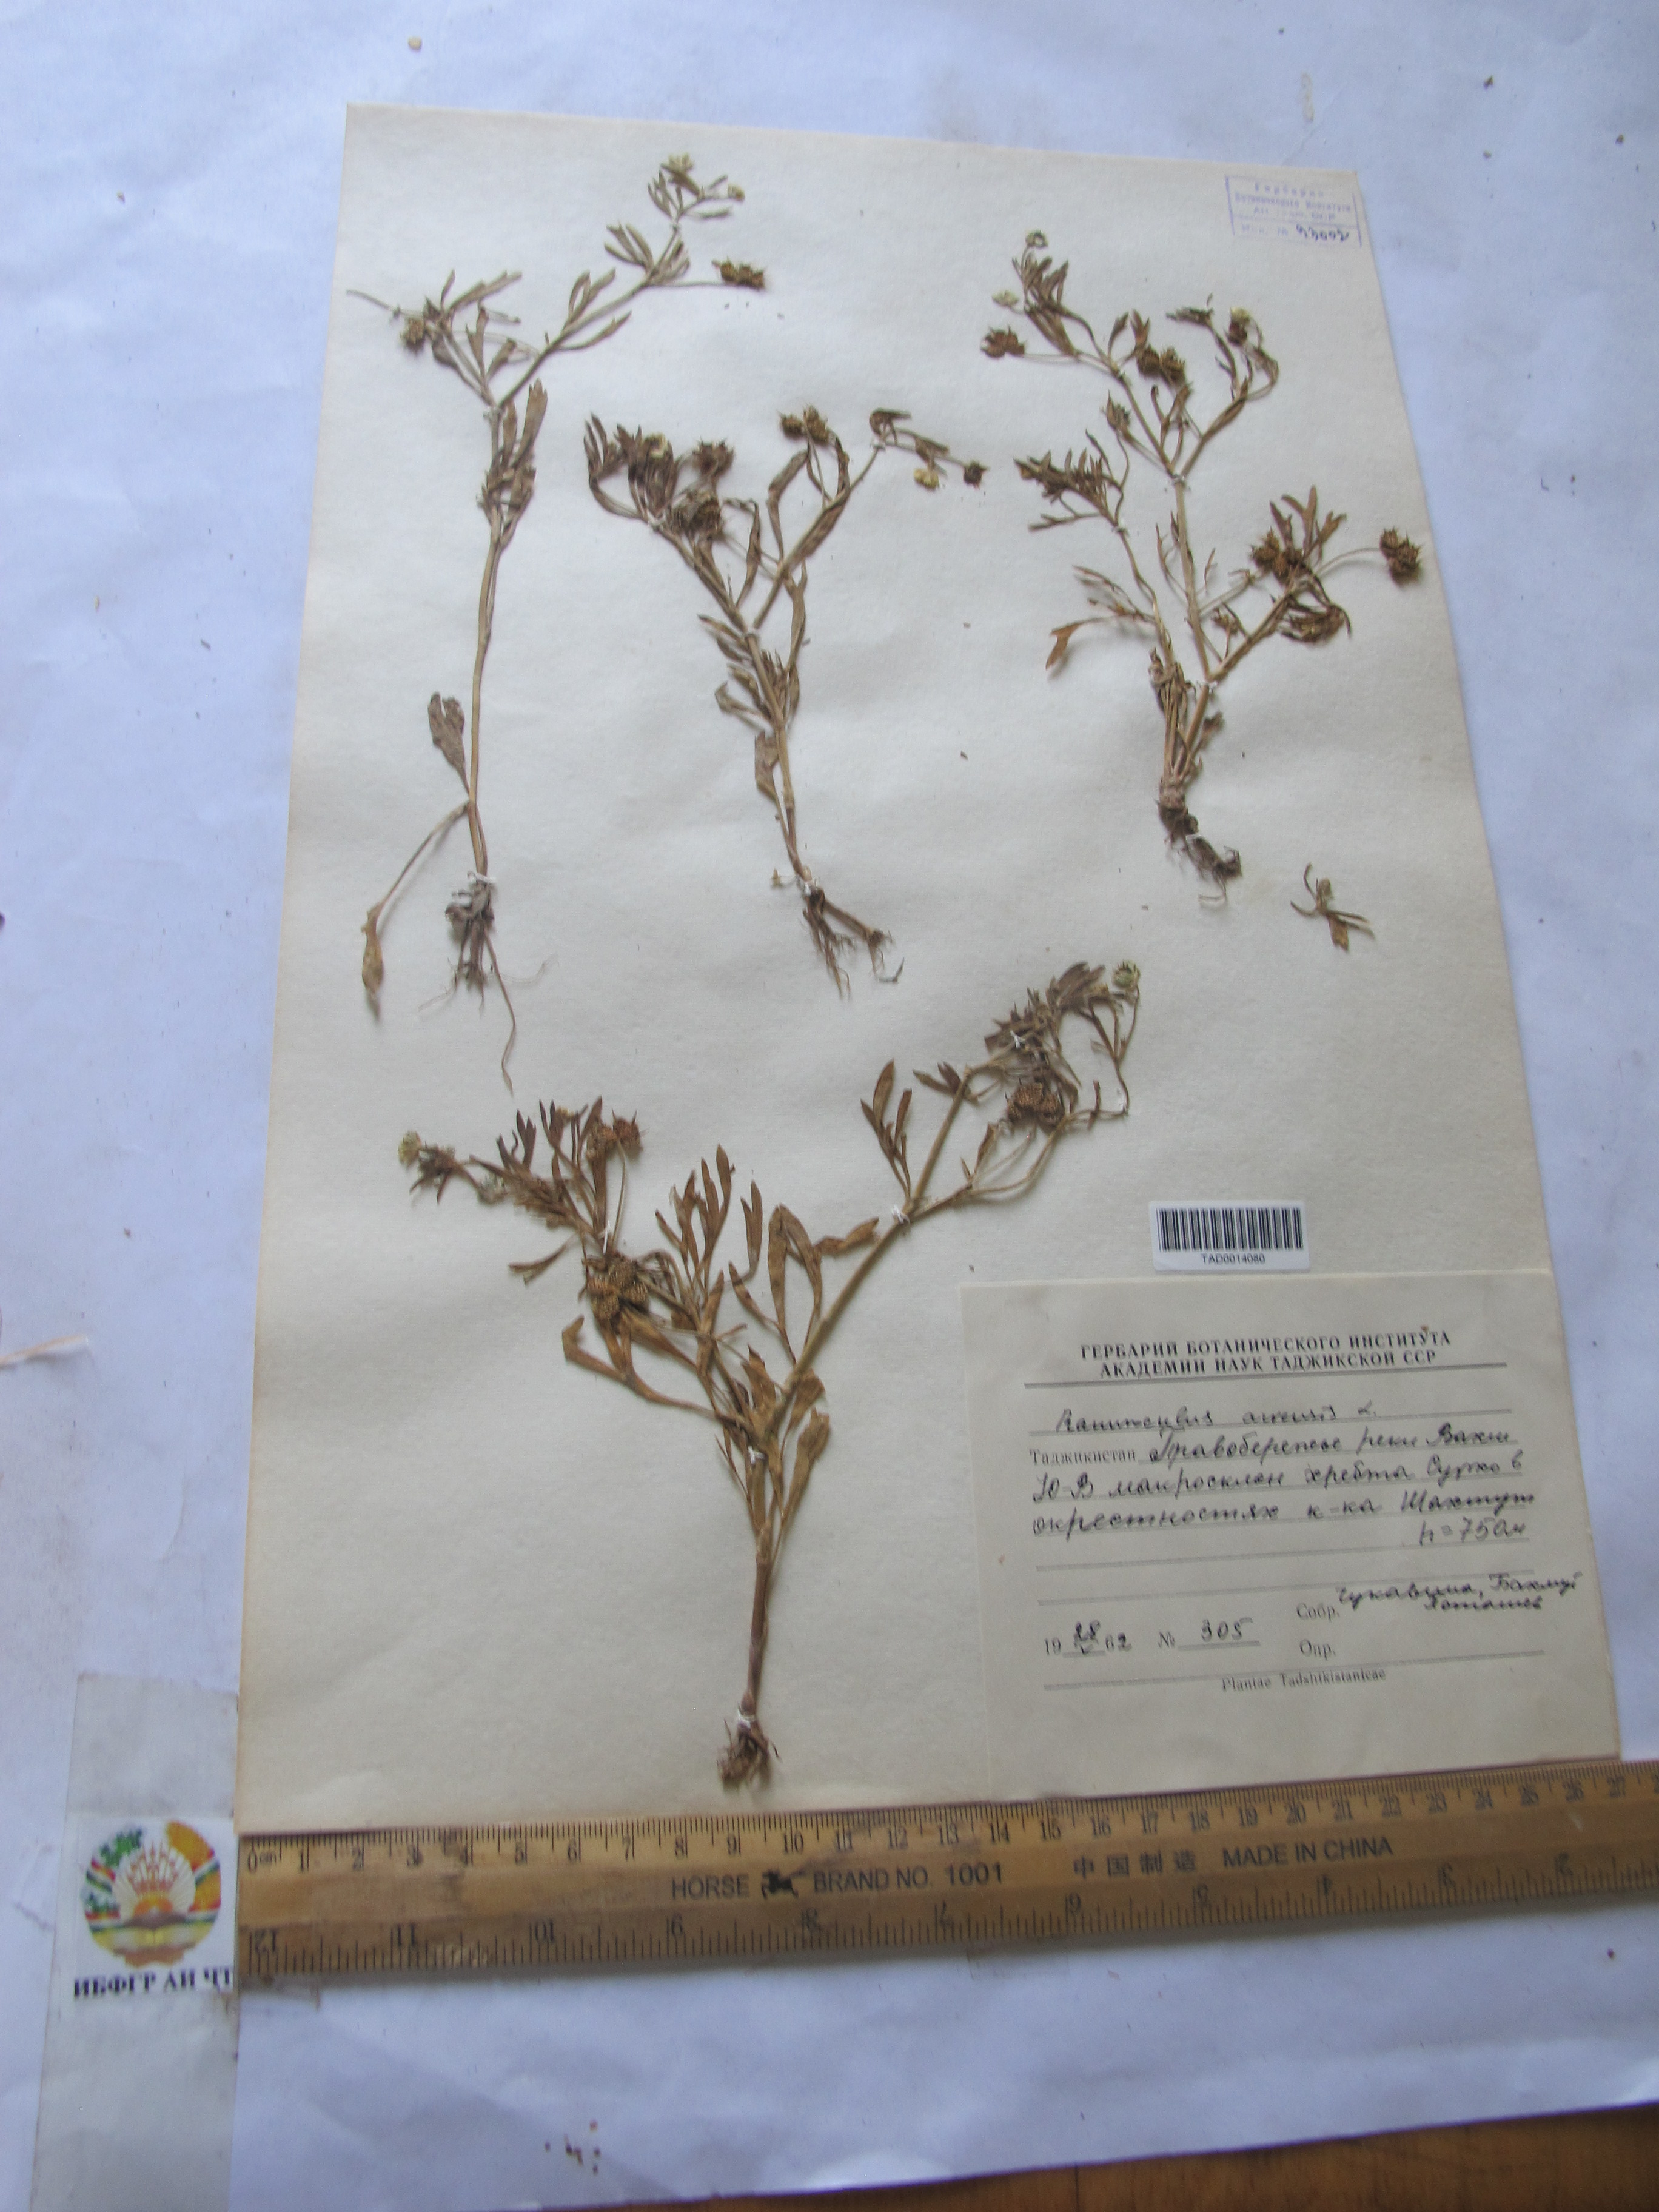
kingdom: Plantae
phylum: Tracheophyta
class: Magnoliopsida
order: Ranunculales
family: Ranunculaceae
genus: Ranunculus
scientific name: Ranunculus arvensis
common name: Corn buttercup
